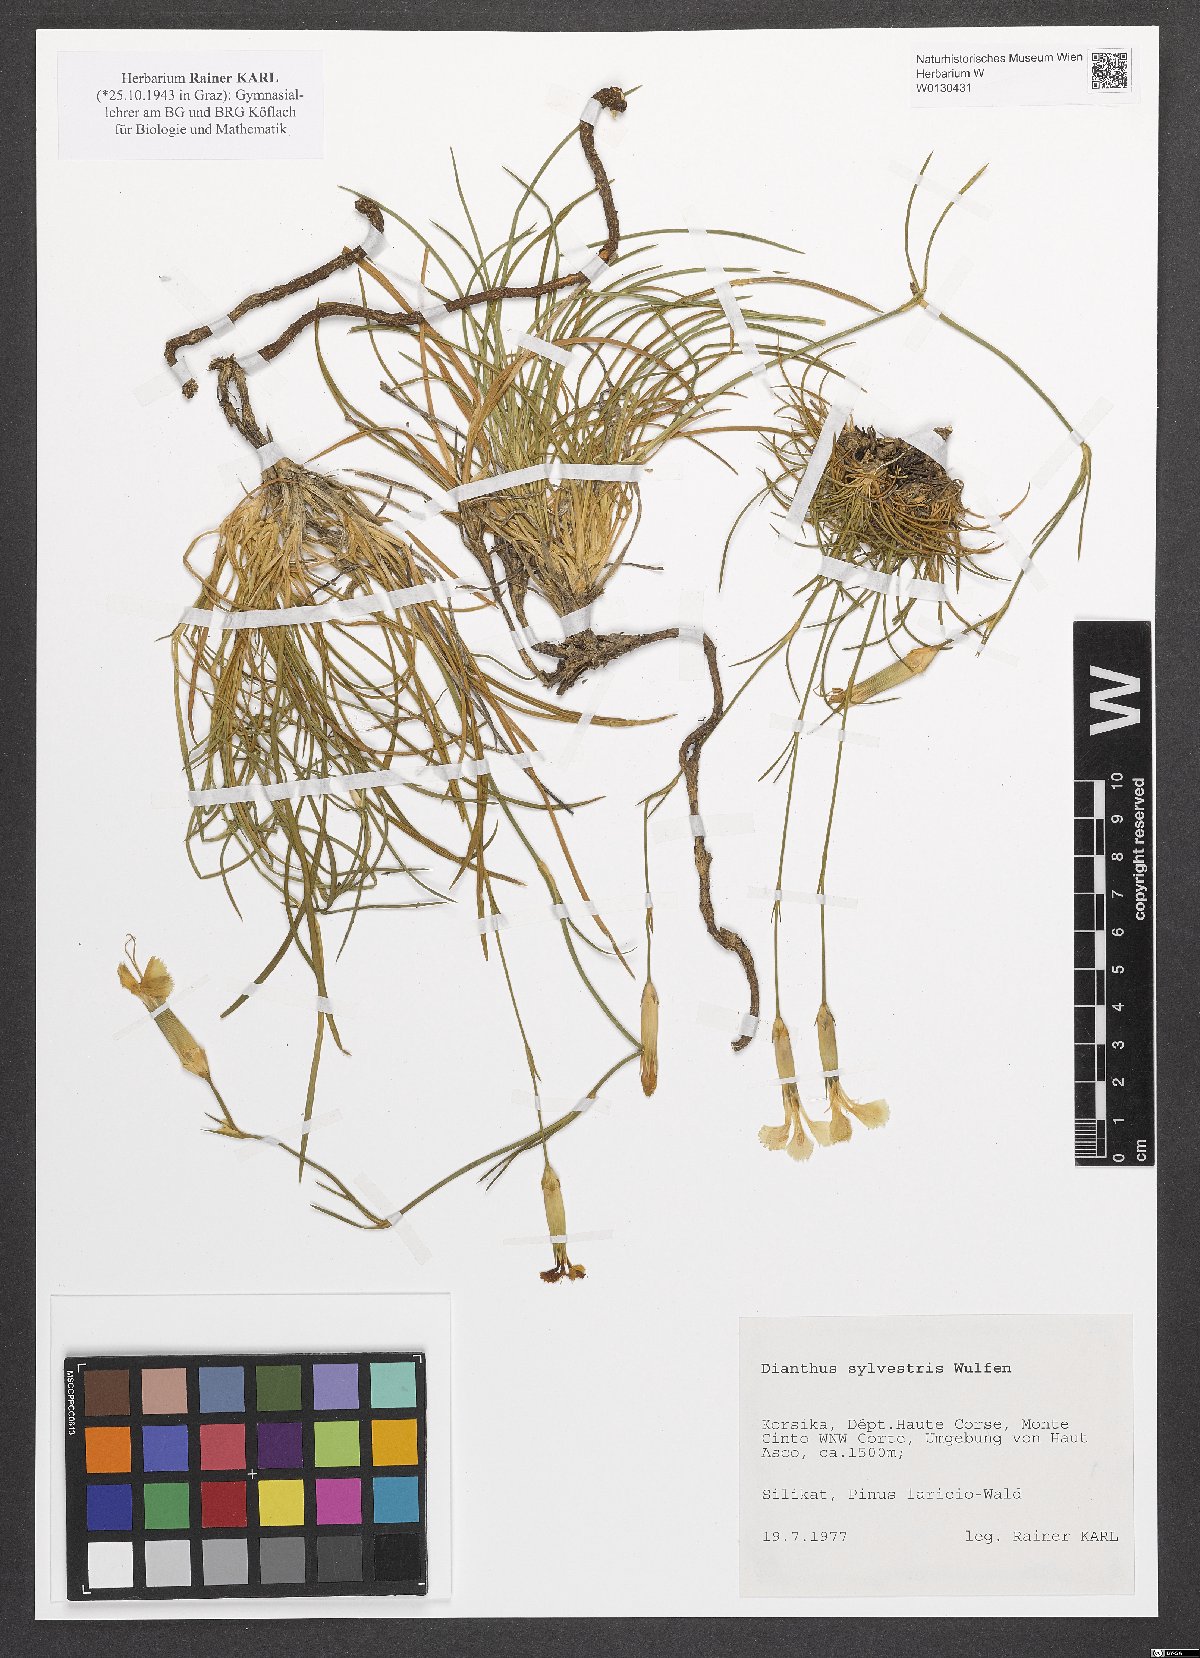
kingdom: Plantae
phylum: Tracheophyta
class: Magnoliopsida
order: Caryophyllales
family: Caryophyllaceae
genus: Dianthus
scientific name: Dianthus sylvestris
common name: Wood pink
